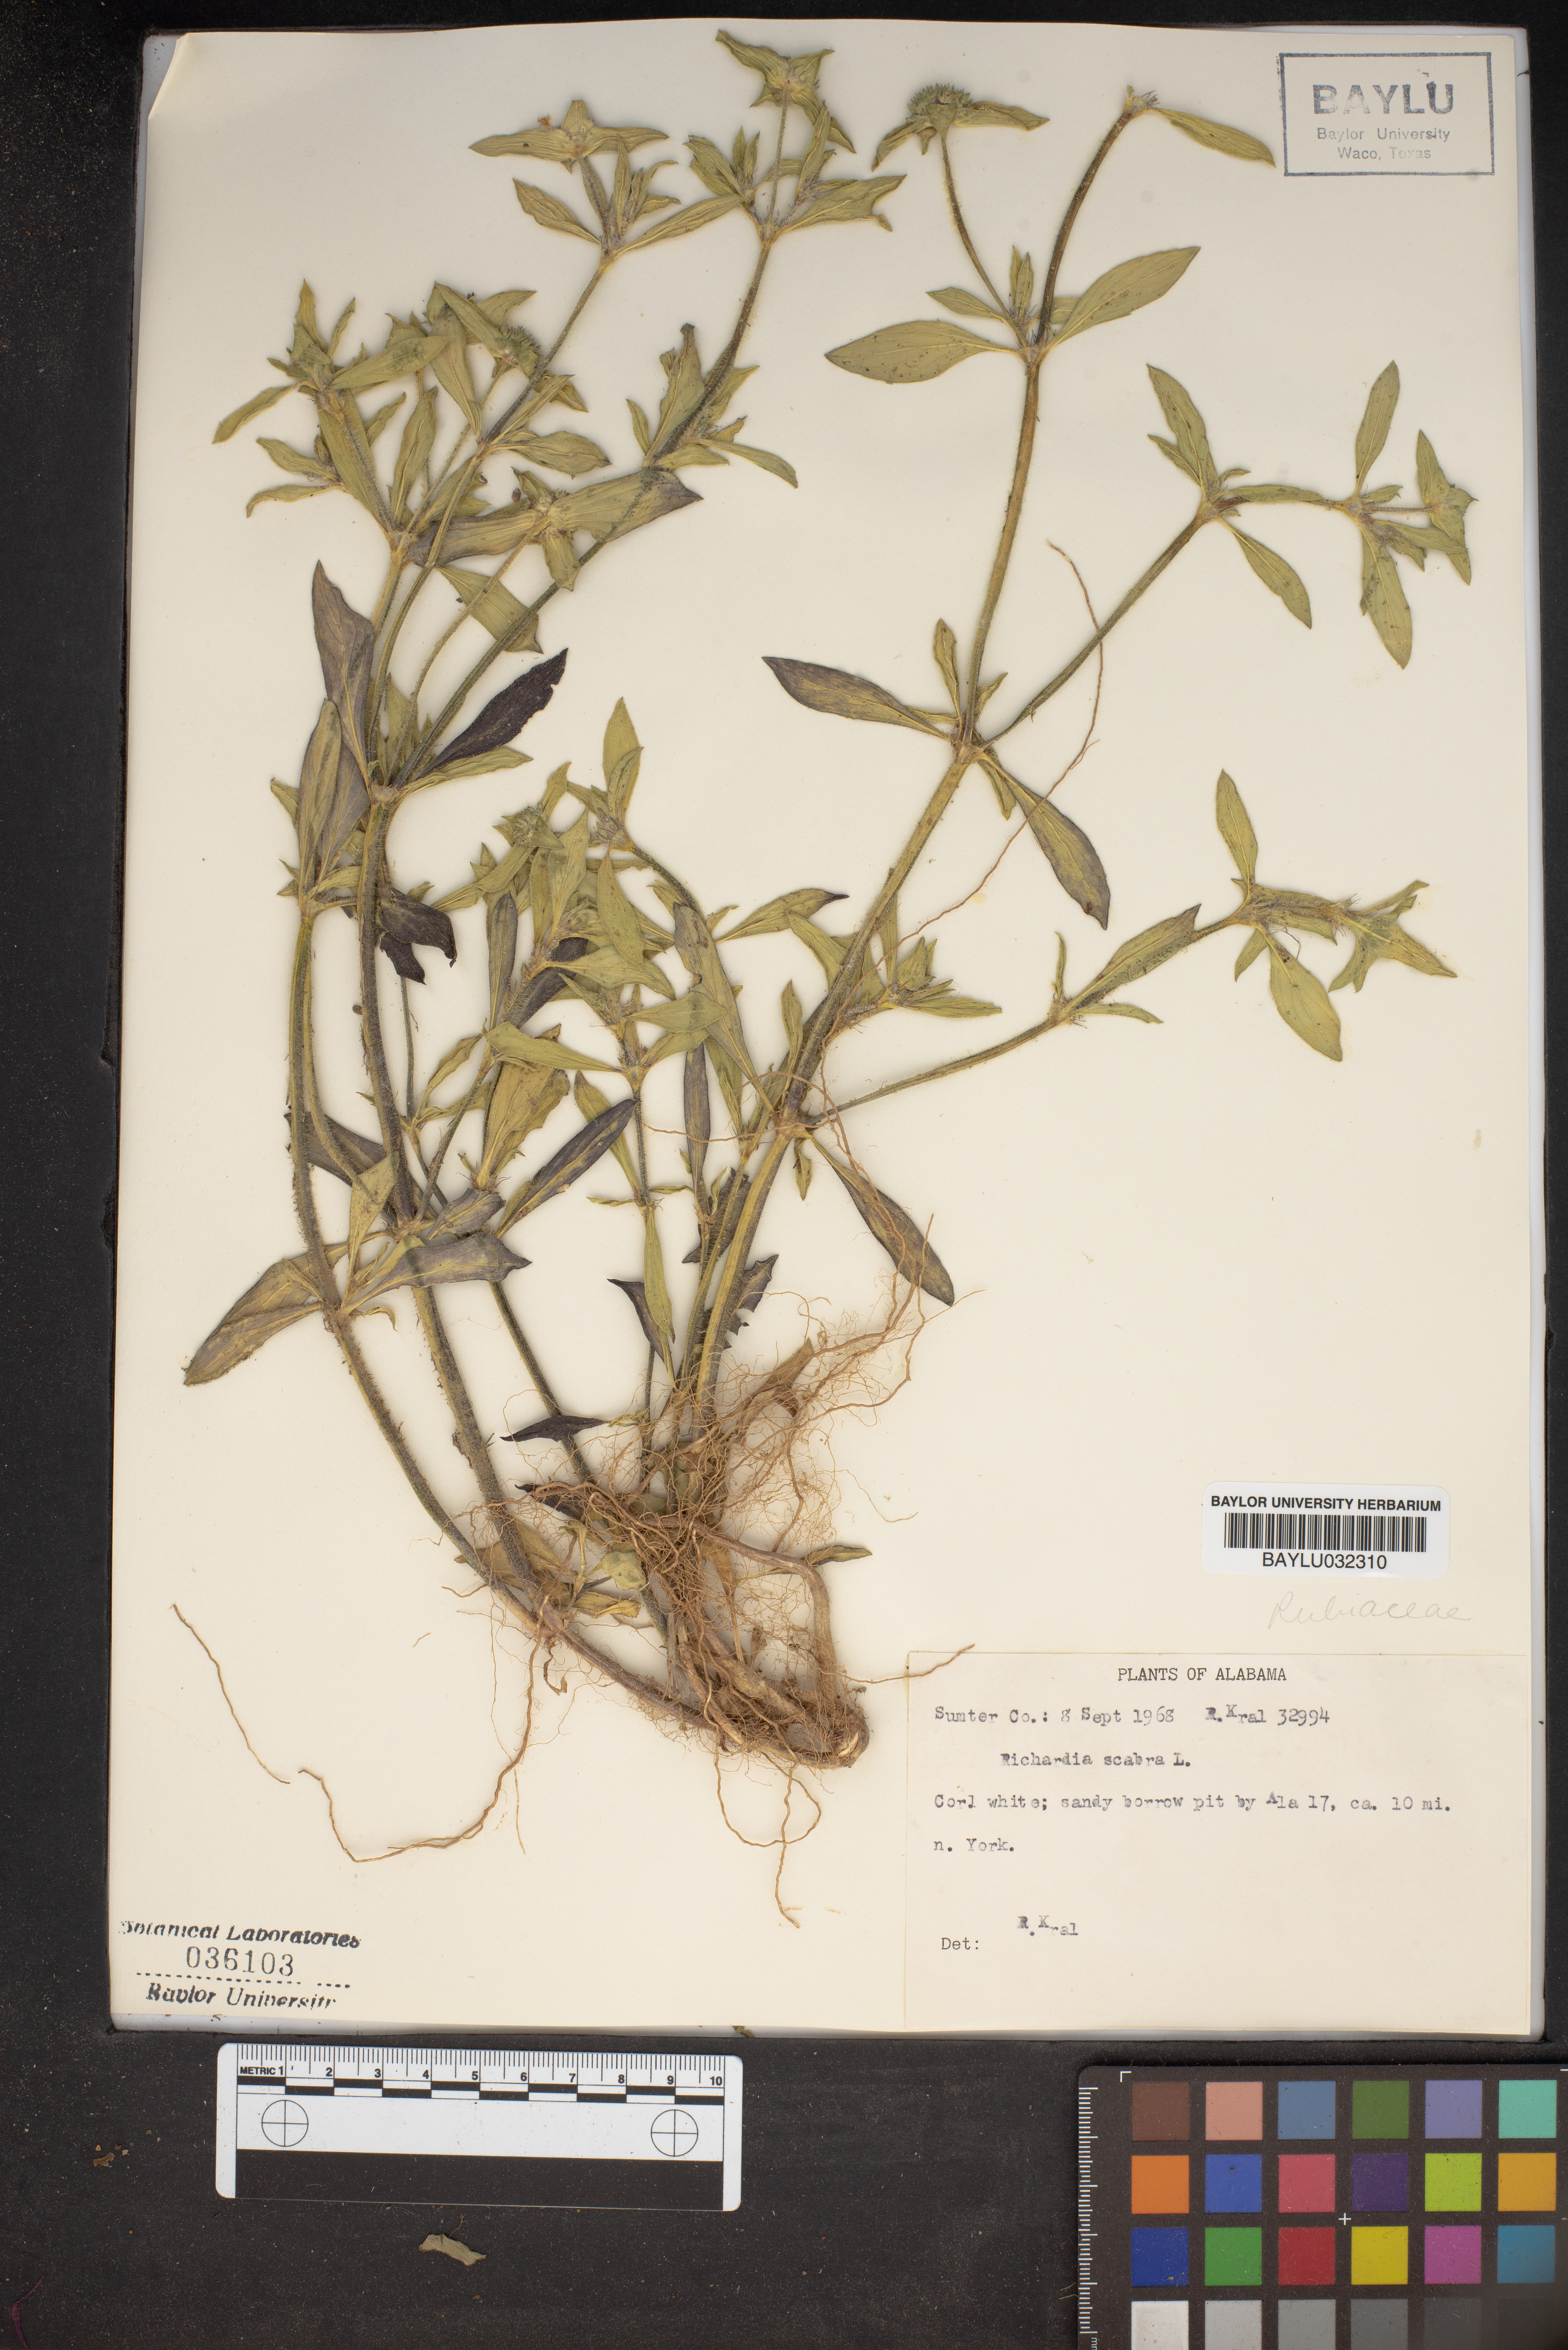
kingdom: Plantae
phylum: Tracheophyta
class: Magnoliopsida
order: Gentianales
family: Rubiaceae
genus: Richardia
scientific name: Richardia scabra
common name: Rough mexican clover
